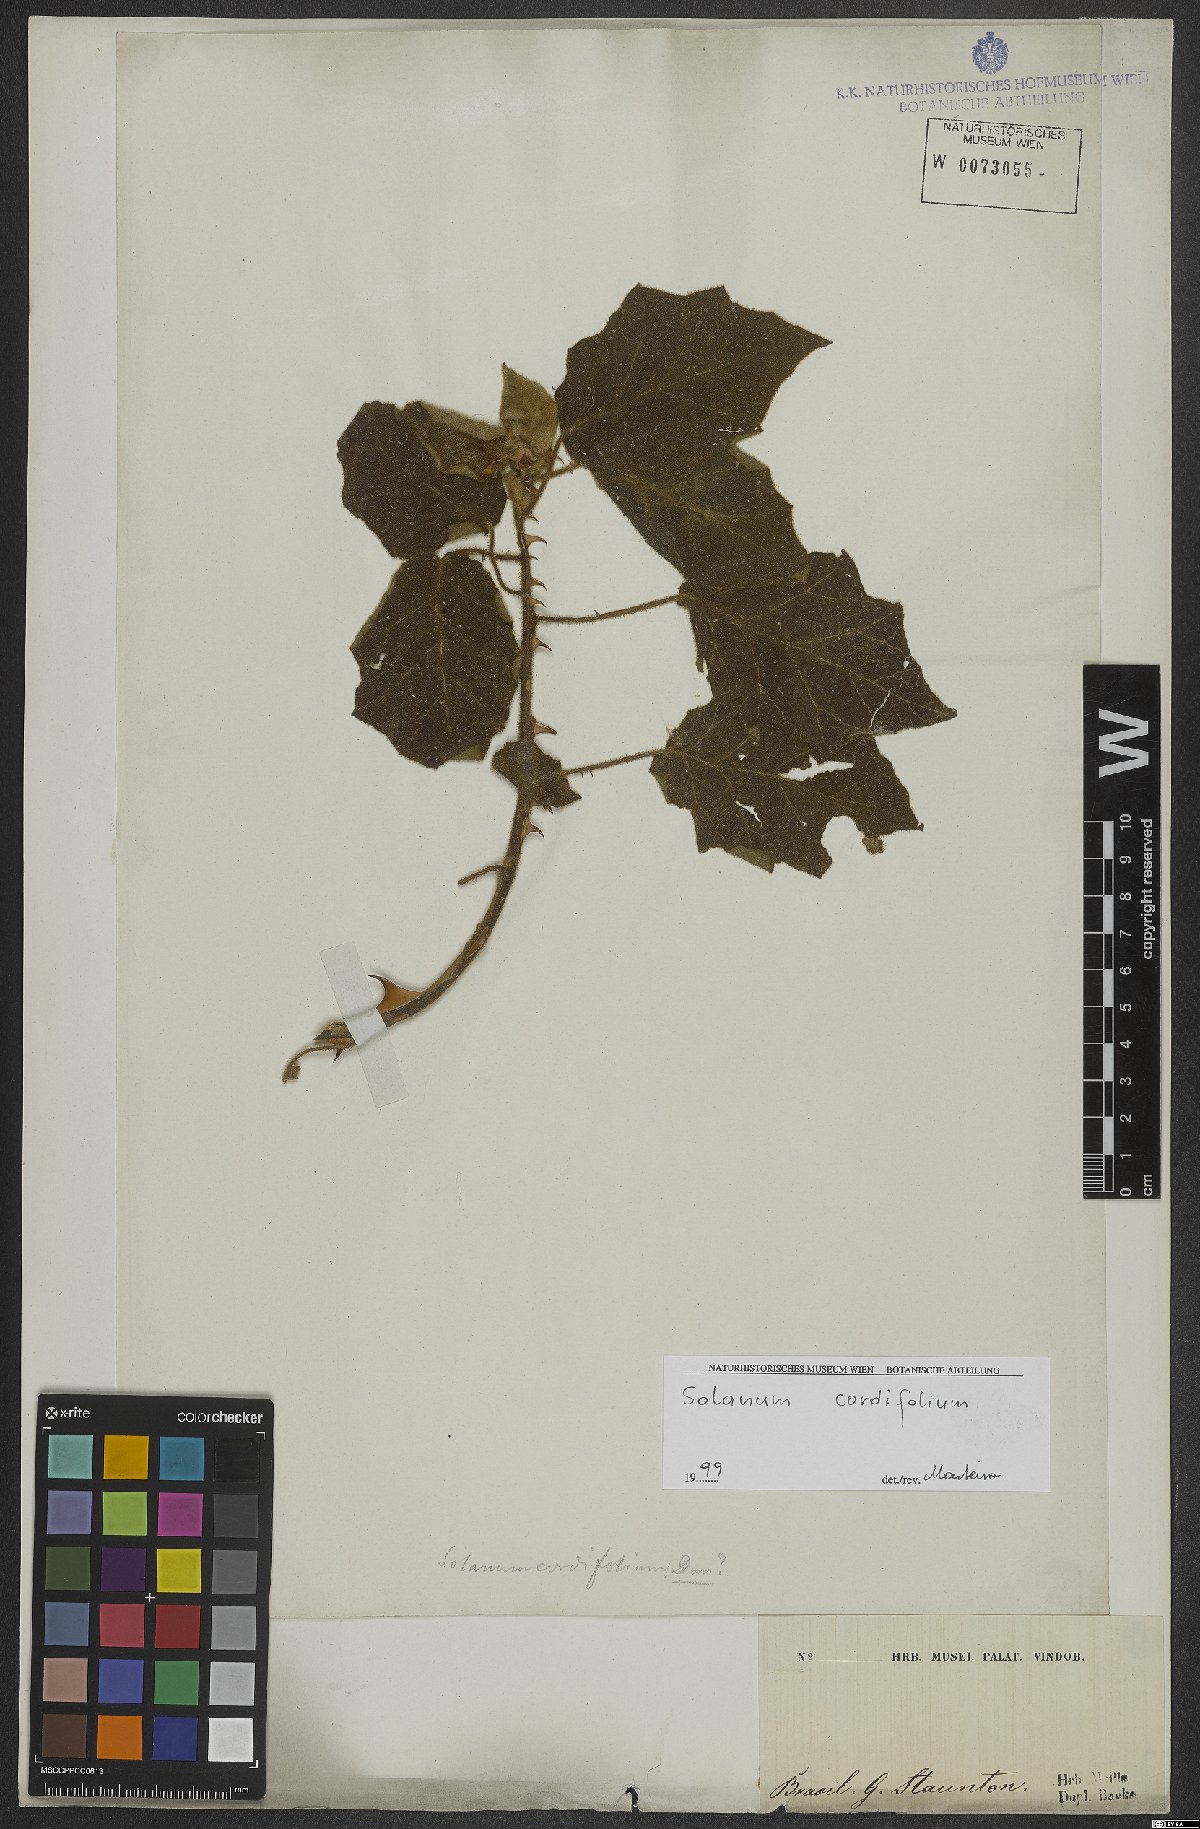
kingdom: Plantae
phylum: Tracheophyta
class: Magnoliopsida
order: Solanales
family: Solanaceae
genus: Solanum
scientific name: Solanum cordifolium
